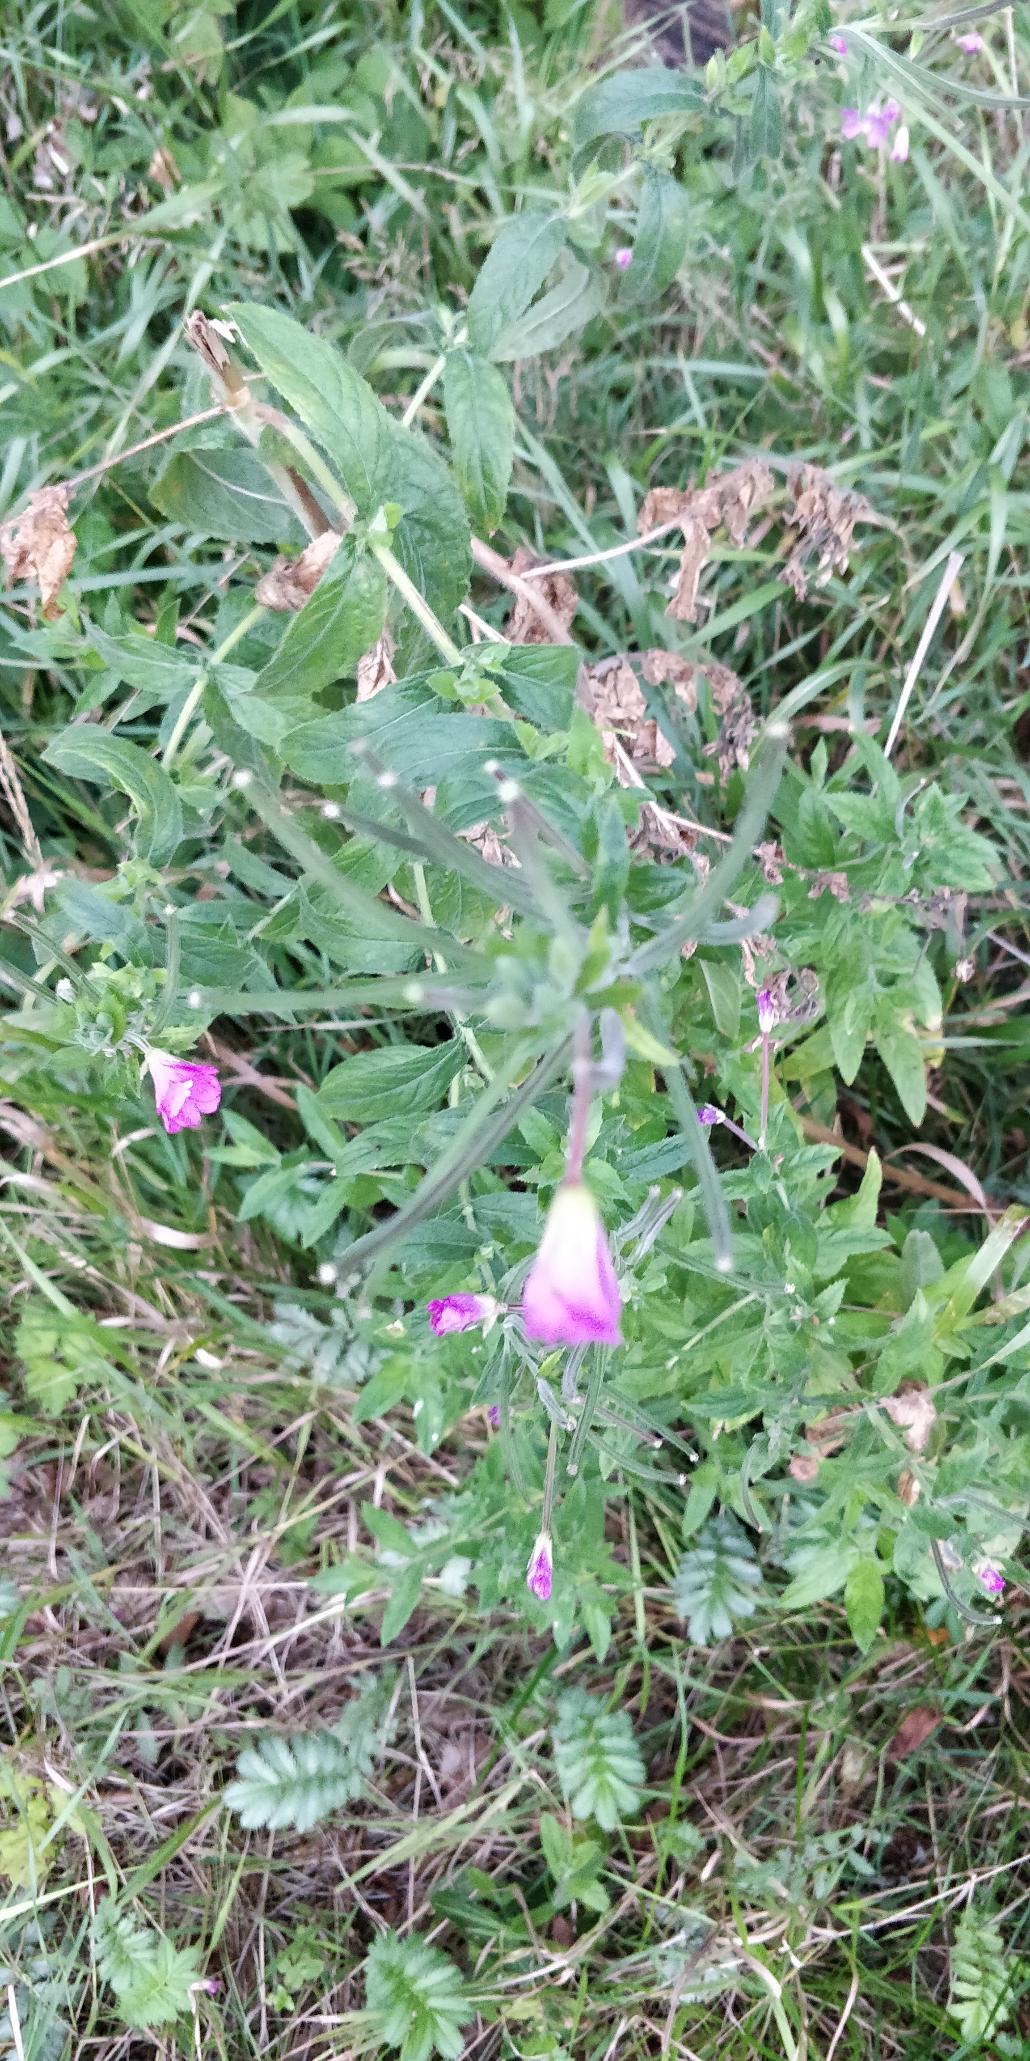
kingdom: Plantae
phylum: Tracheophyta
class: Magnoliopsida
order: Myrtales
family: Onagraceae
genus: Epilobium
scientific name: Epilobium hirsutum
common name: Lådden dueurt
